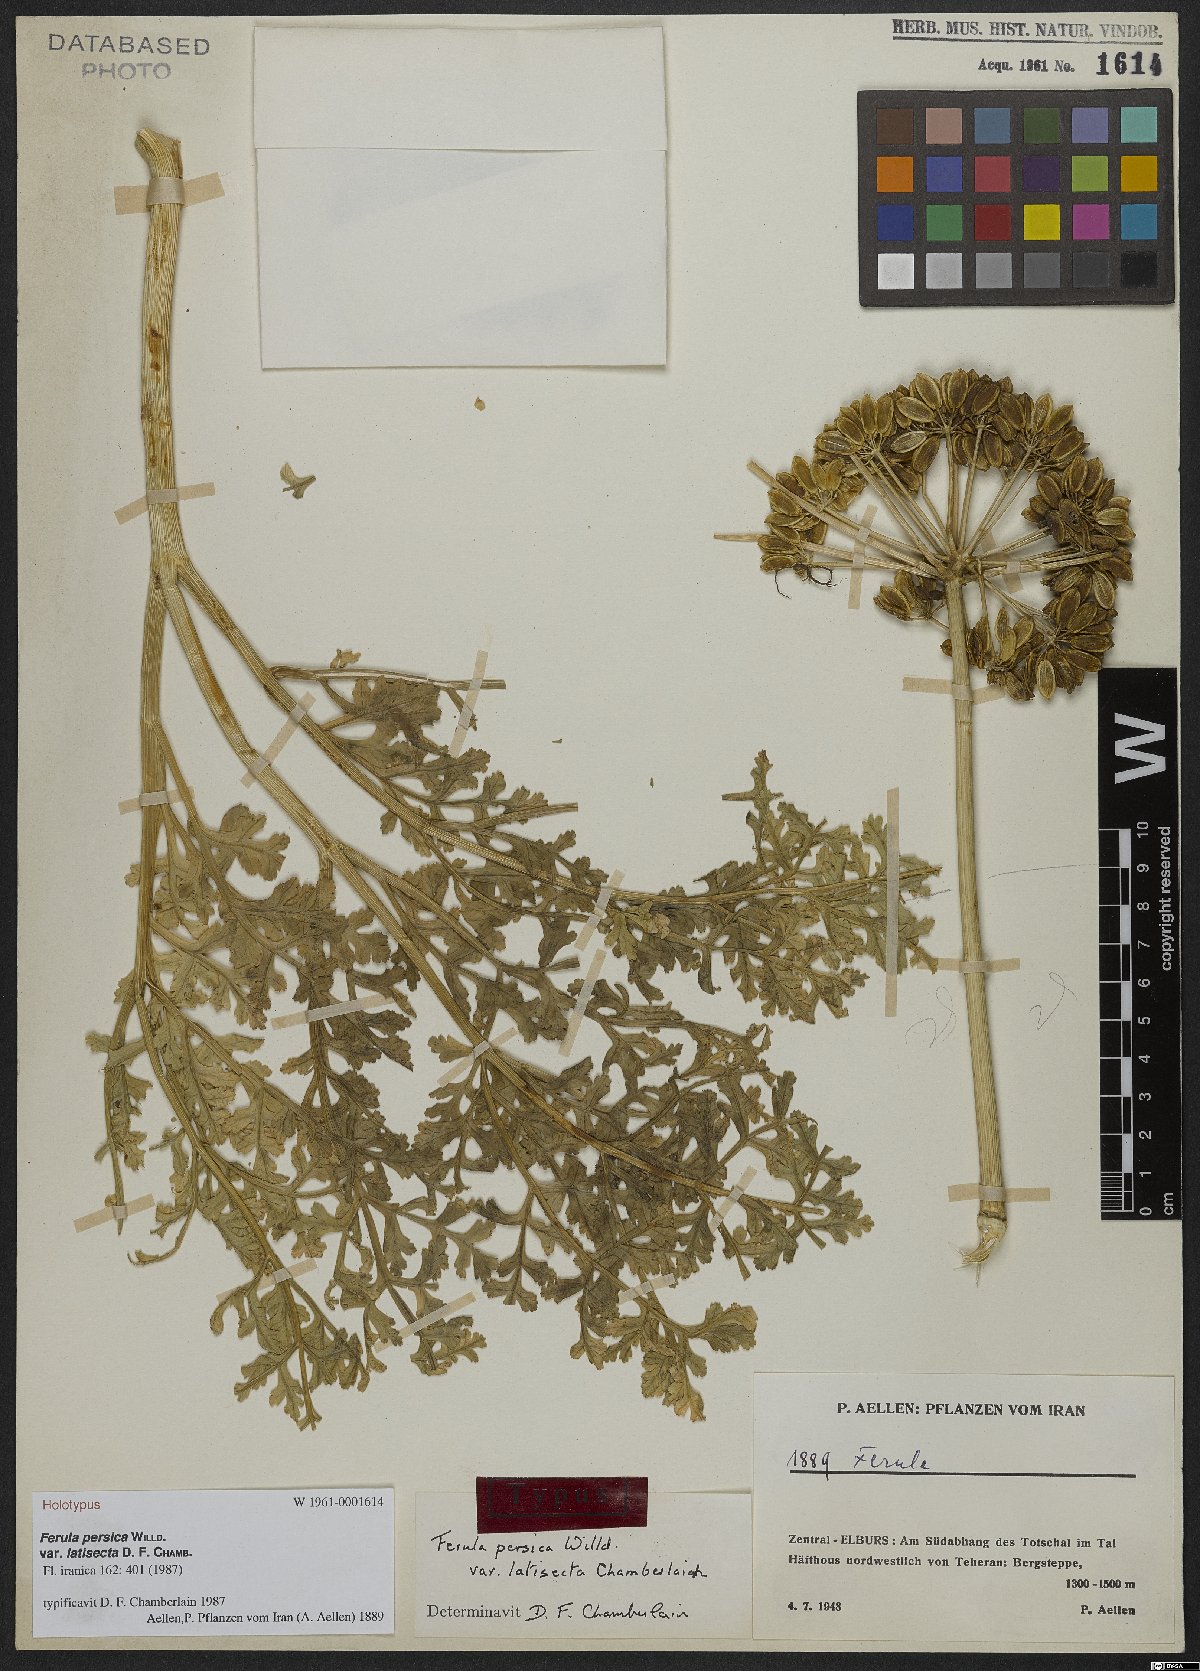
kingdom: Plantae
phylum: Tracheophyta
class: Magnoliopsida
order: Apiales
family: Apiaceae
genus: Ferula
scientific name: Ferula persica
